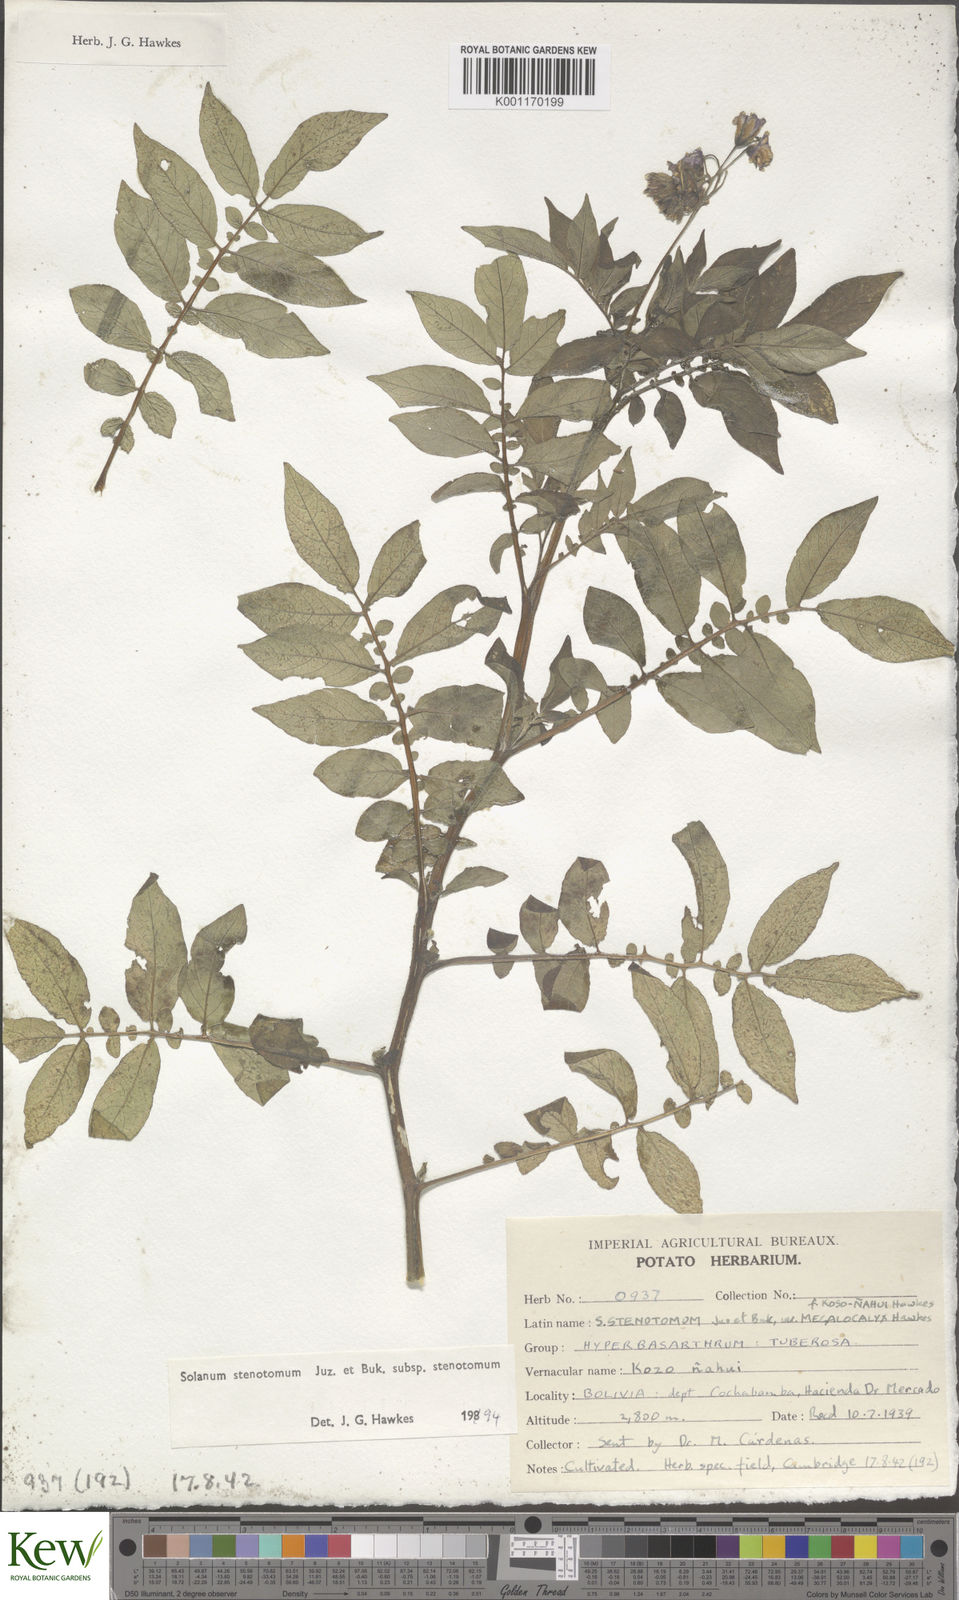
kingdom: Plantae
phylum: Tracheophyta
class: Magnoliopsida
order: Solanales
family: Solanaceae
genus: Solanum
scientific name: Solanum tuberosum
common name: Potato
